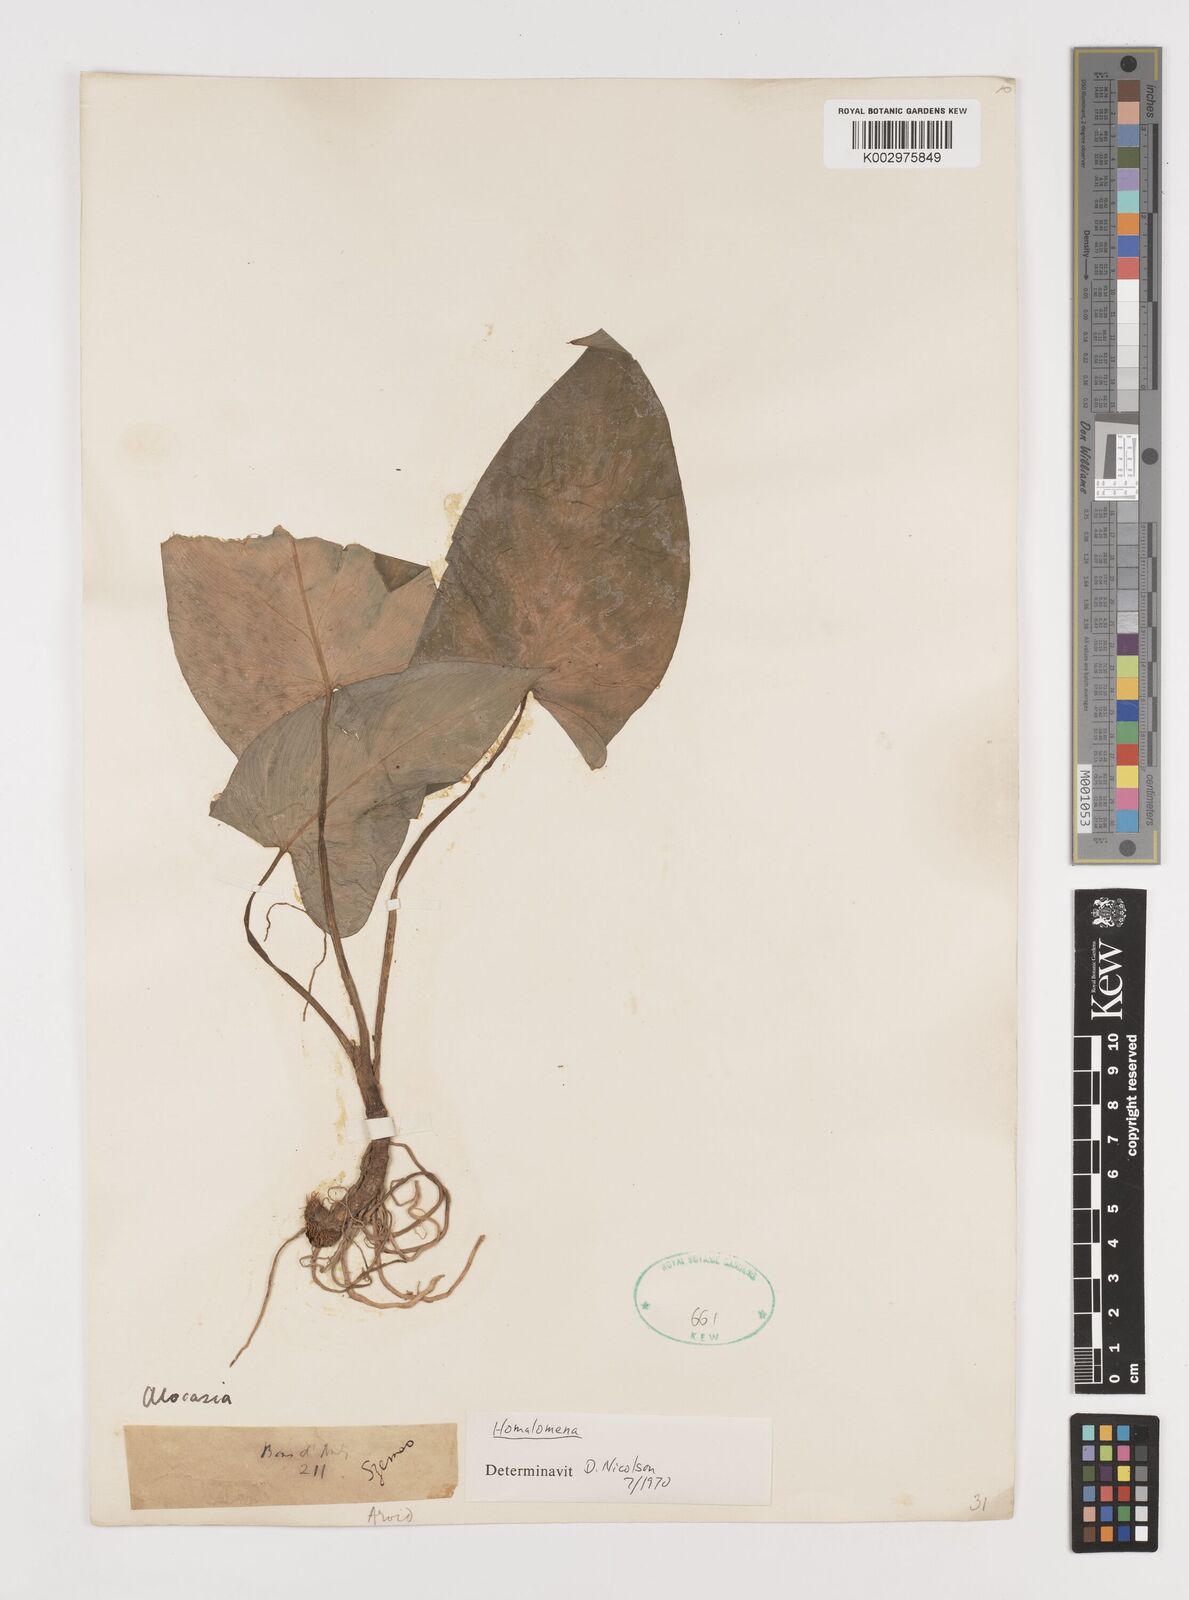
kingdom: Plantae
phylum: Tracheophyta
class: Liliopsida
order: Alismatales
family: Araceae
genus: Homalomena
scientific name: Homalomena
